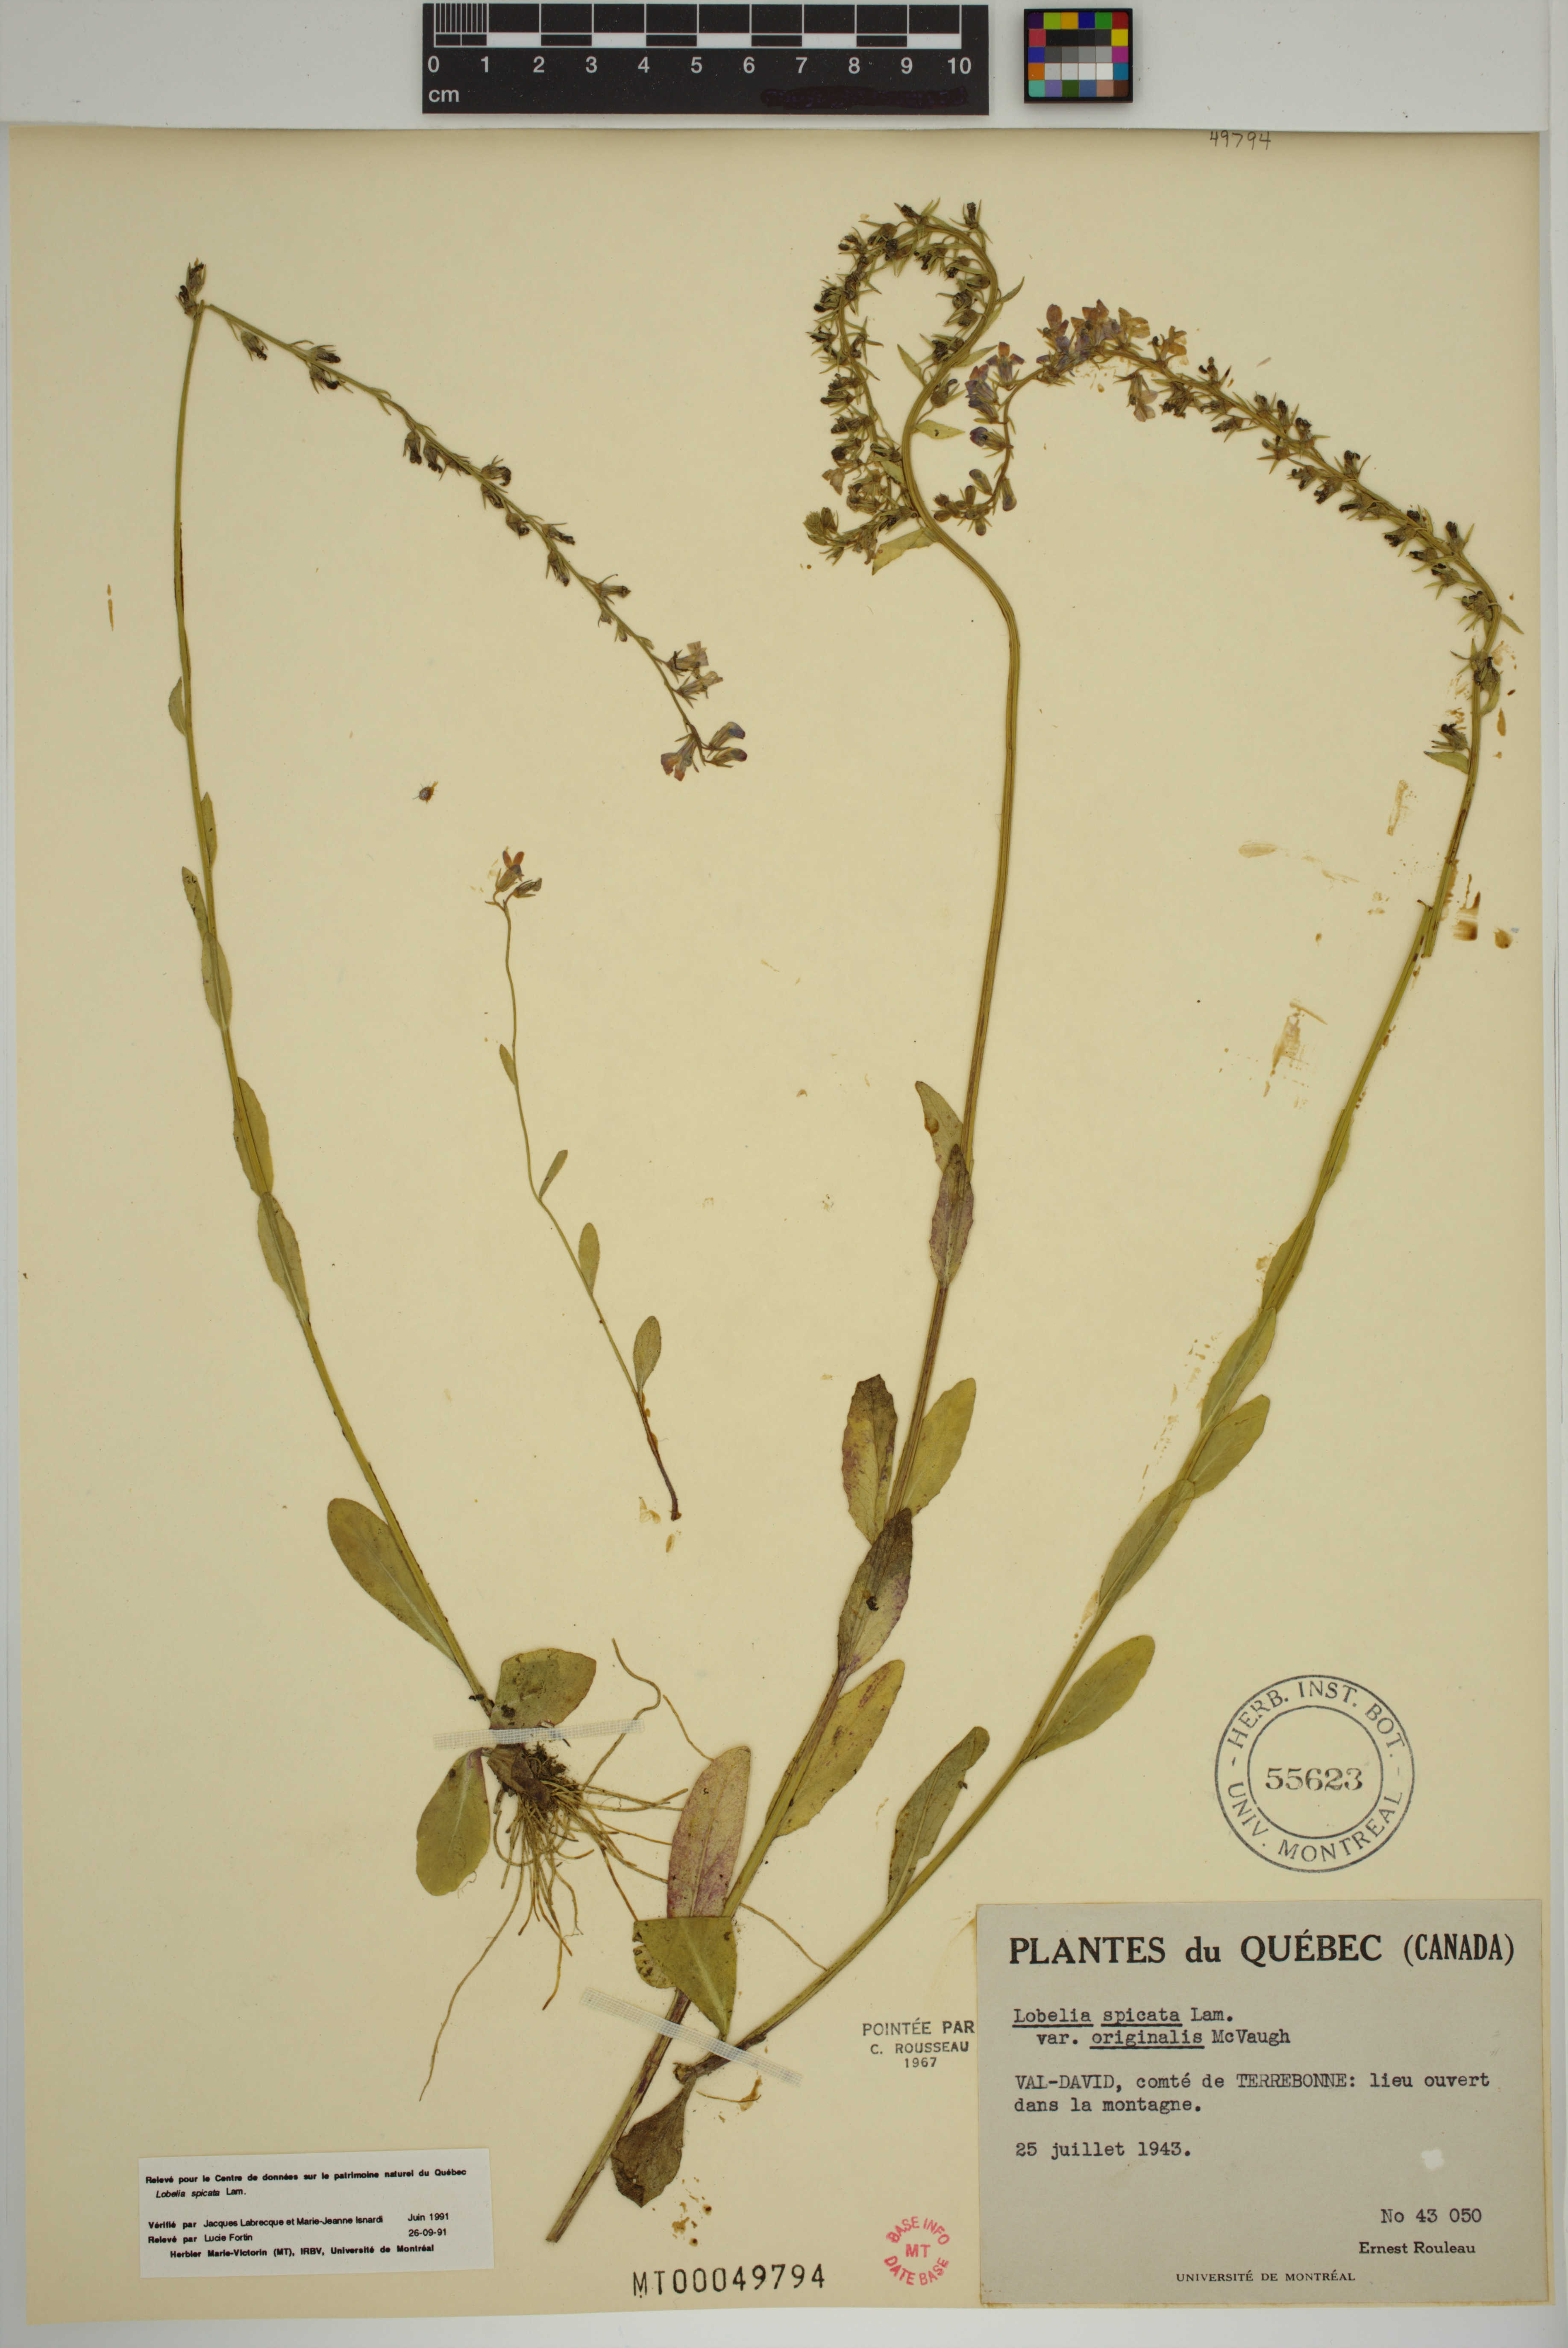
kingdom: Plantae
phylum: Tracheophyta
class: Magnoliopsida
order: Asterales
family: Campanulaceae
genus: Lobelia
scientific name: Lobelia spicata
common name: Pale-spike lobelia
